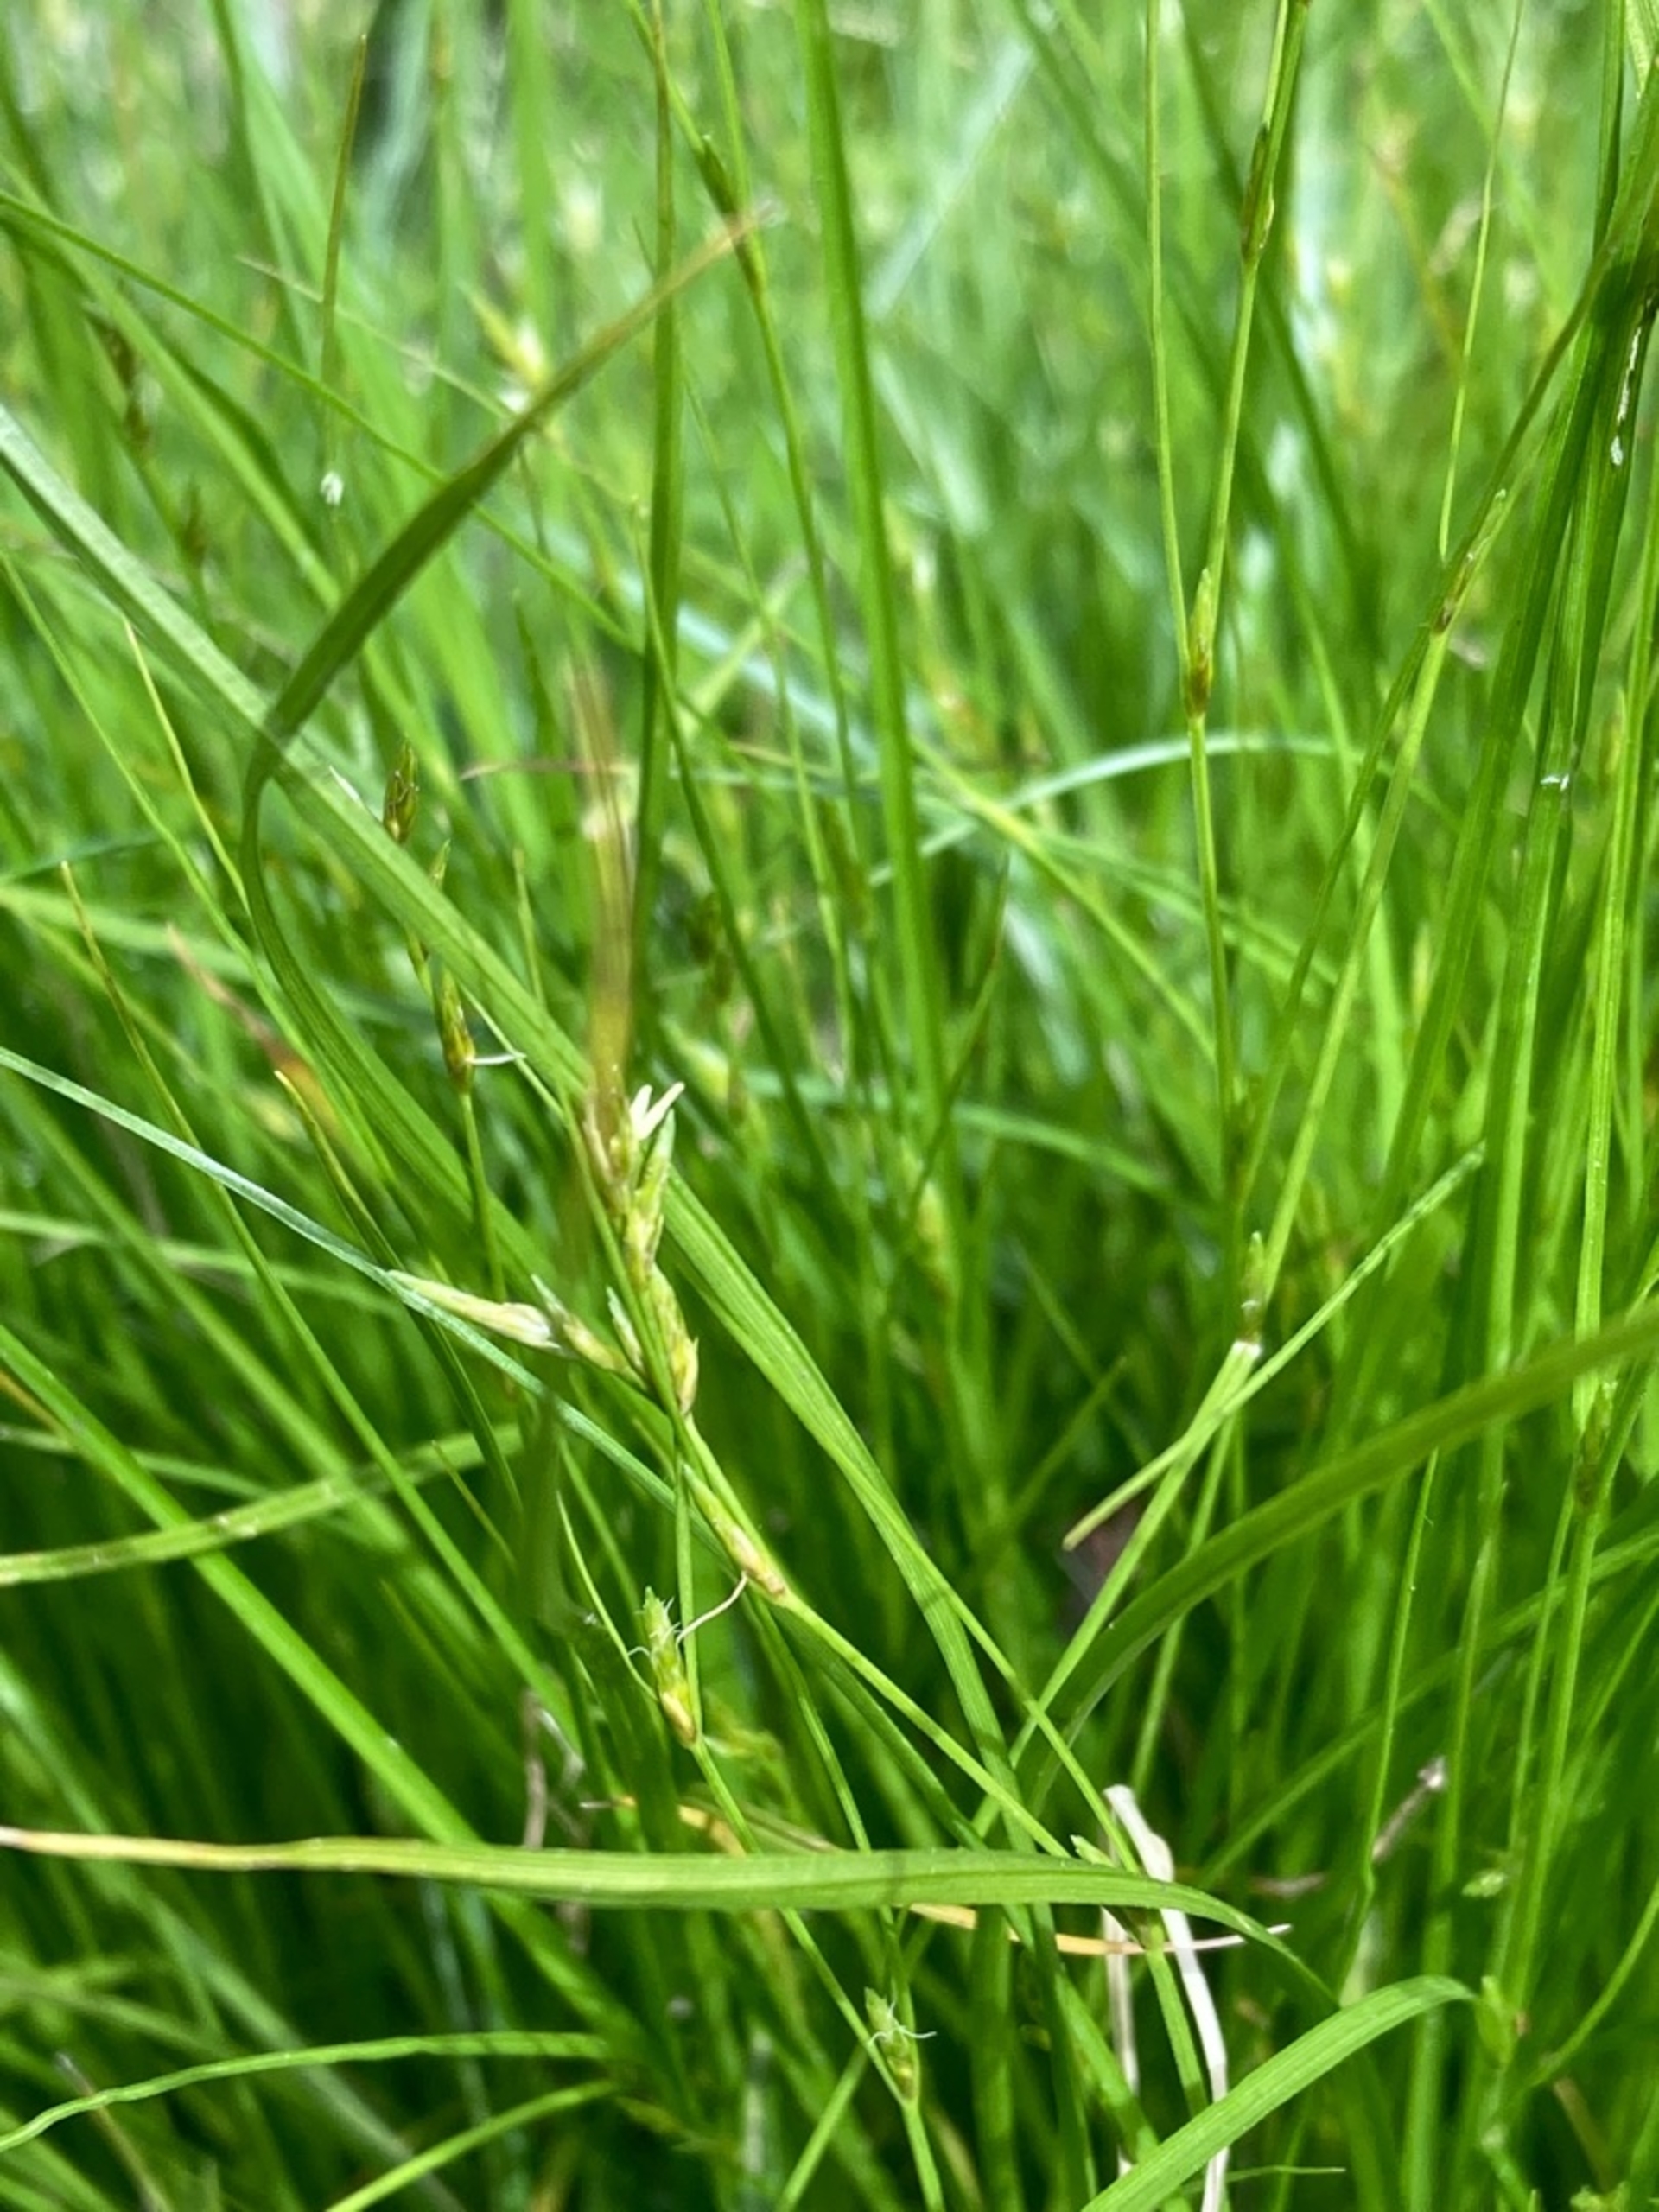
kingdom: Plantae
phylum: Tracheophyta
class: Liliopsida
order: Poales
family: Cyperaceae
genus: Carex
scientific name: Carex remota
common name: Akselblomstret star
